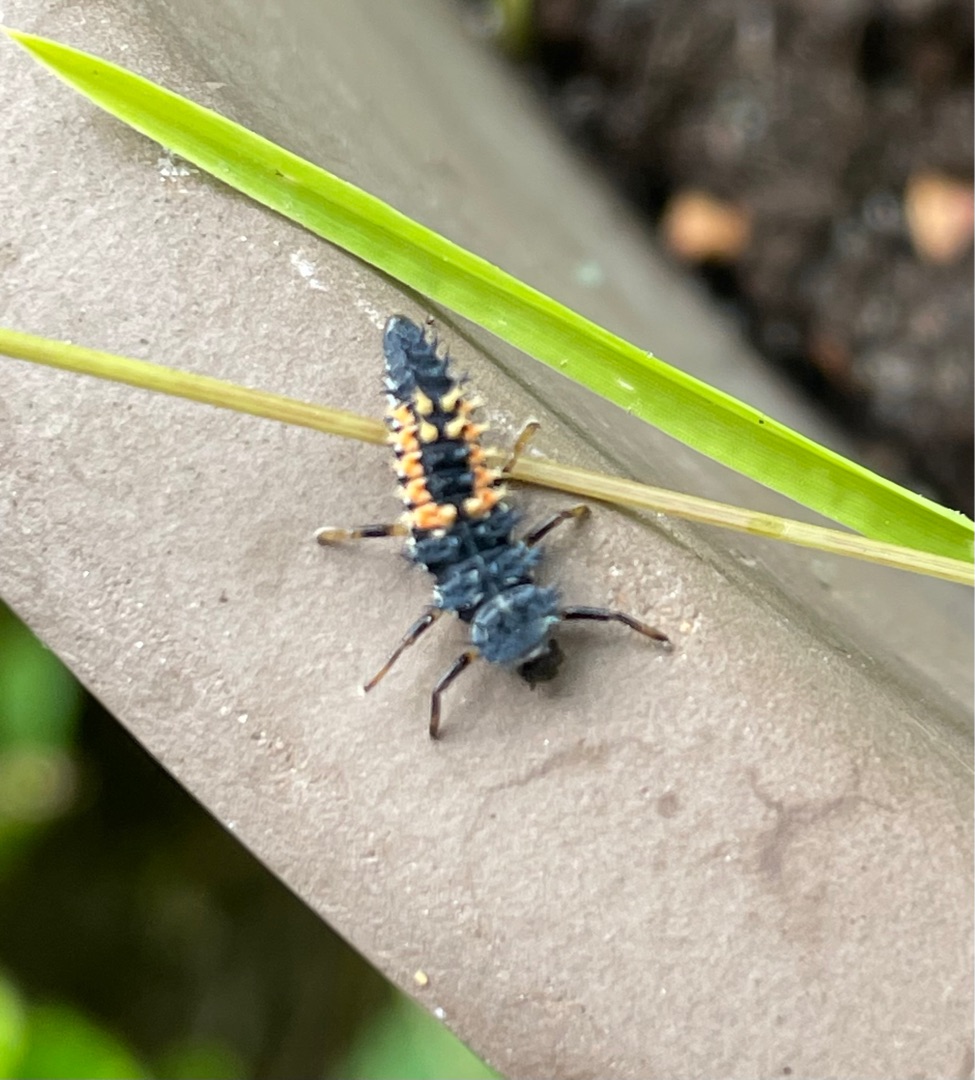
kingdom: Animalia
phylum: Arthropoda
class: Insecta
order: Coleoptera
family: Coccinellidae
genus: Harmonia
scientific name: Harmonia axyridis
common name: Harlekinmariehøne
